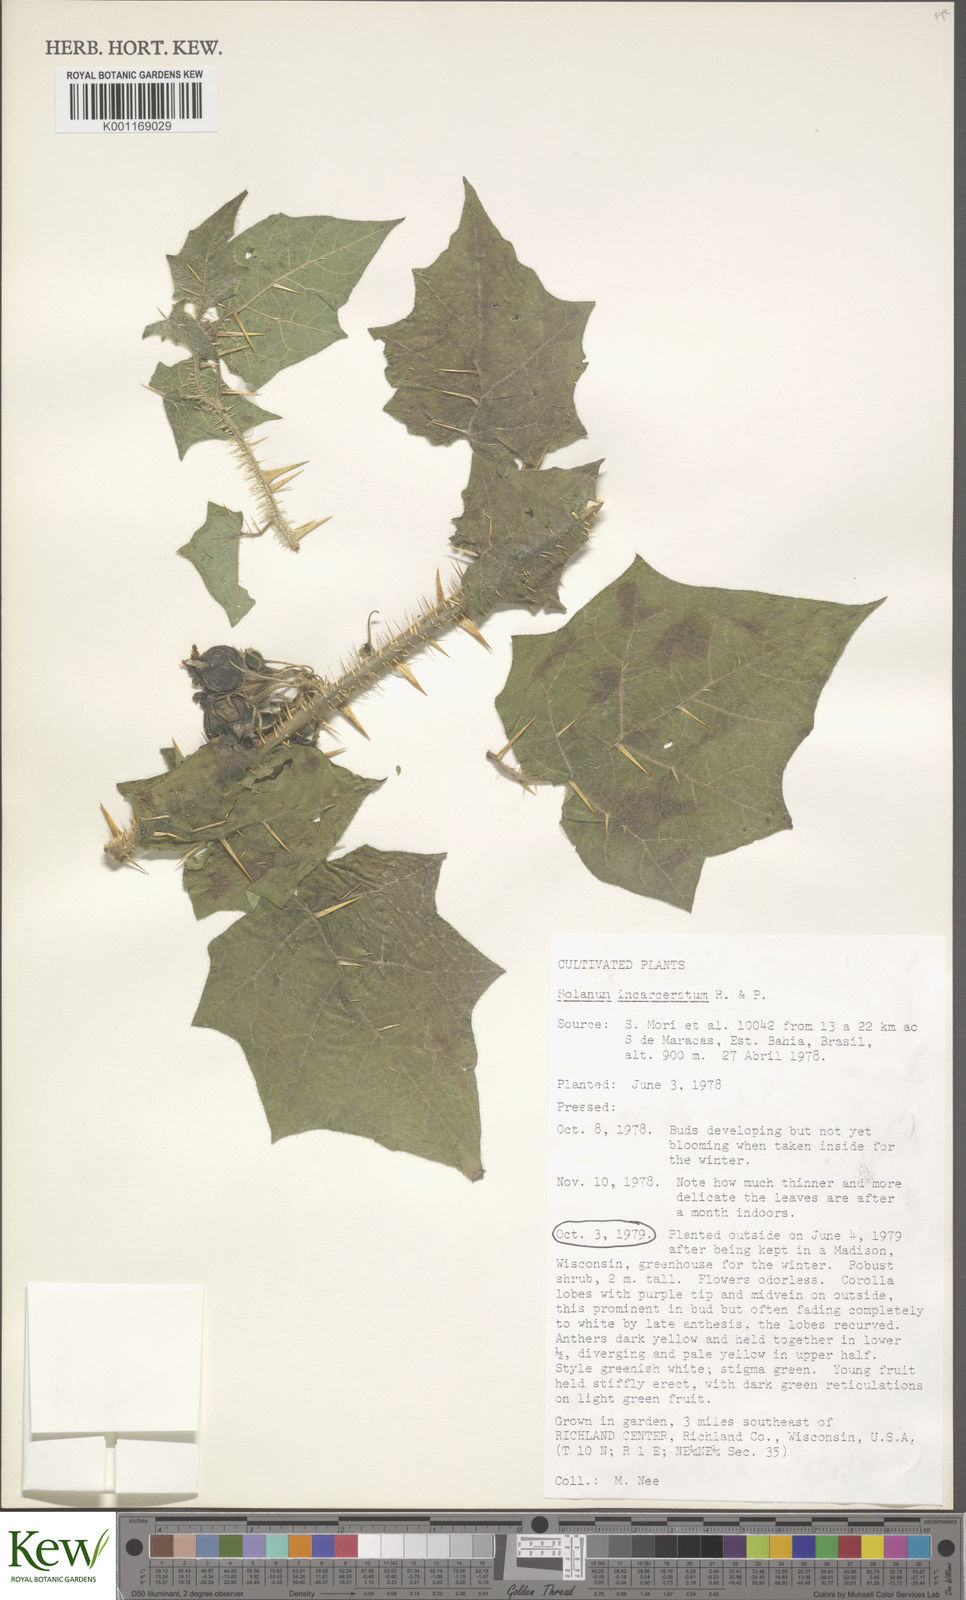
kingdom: Plantae
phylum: Tracheophyta
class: Magnoliopsida
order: Solanales
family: Solanaceae
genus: Solanum
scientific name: Solanum incarceratum
